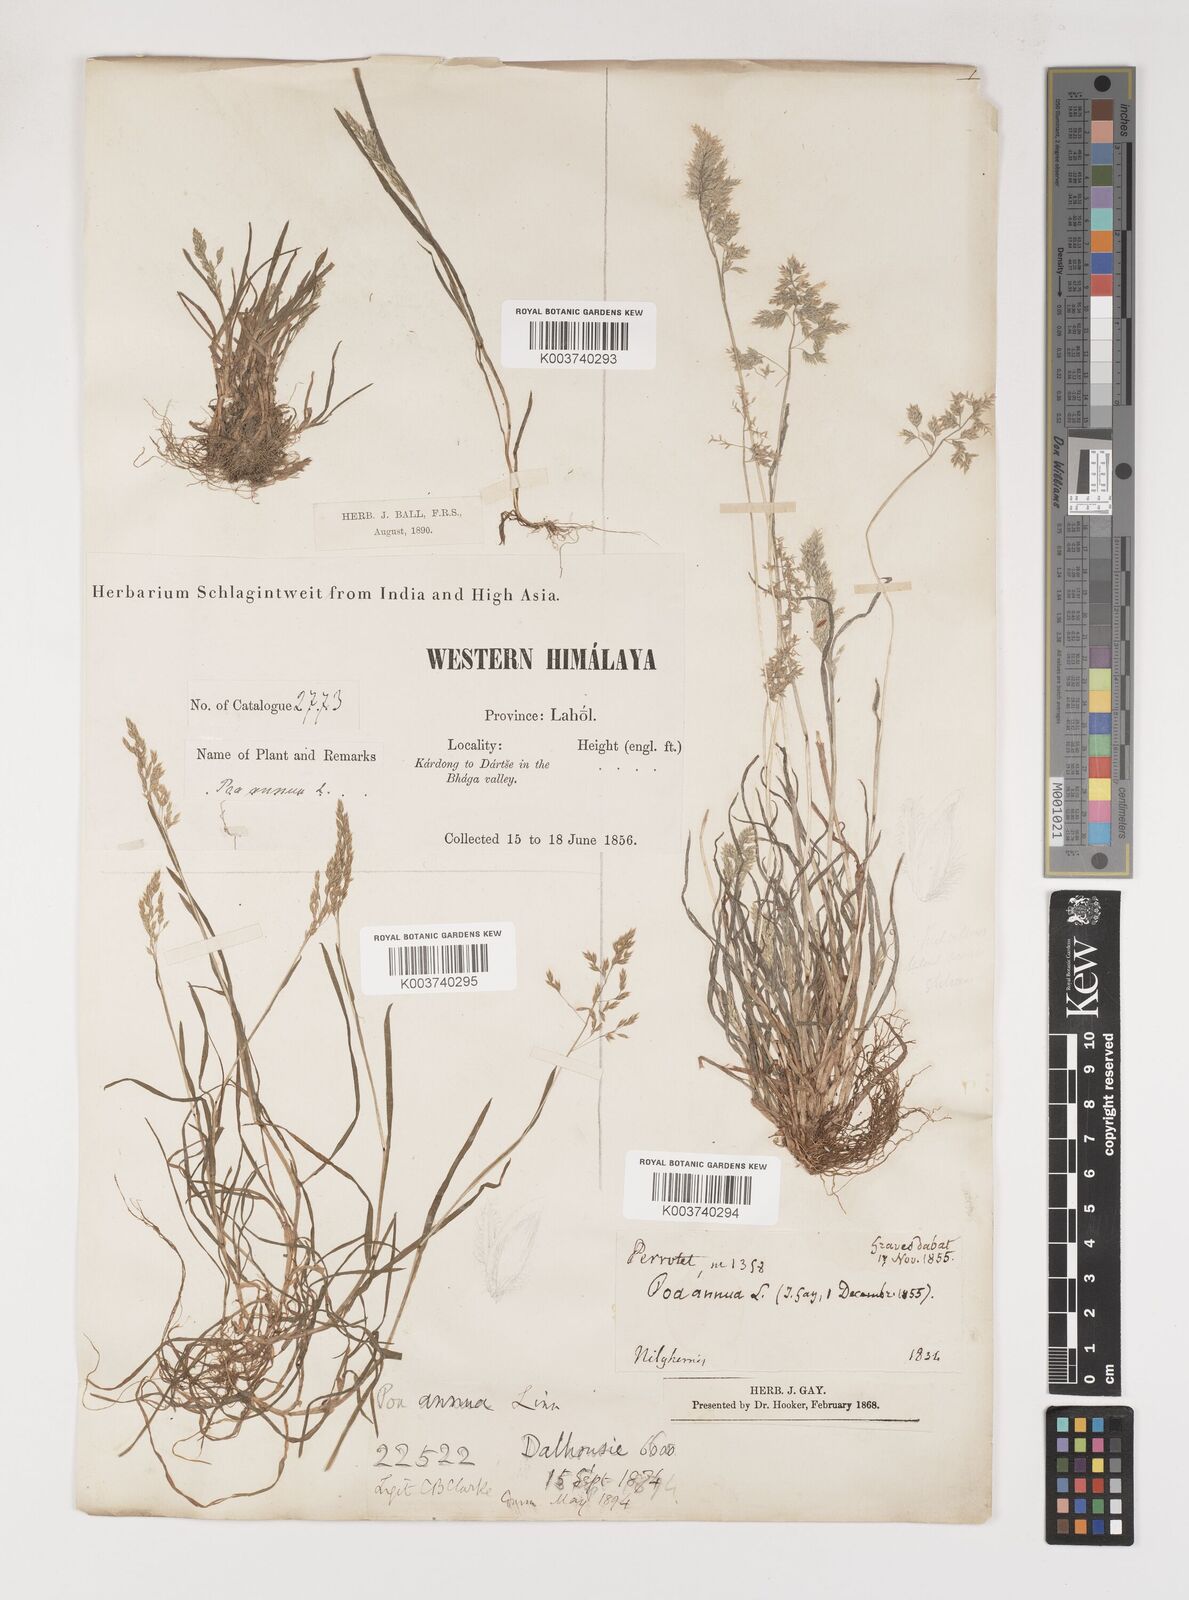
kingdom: Plantae
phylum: Tracheophyta
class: Liliopsida
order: Poales
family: Poaceae
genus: Poa
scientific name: Poa annua
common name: Annual bluegrass
